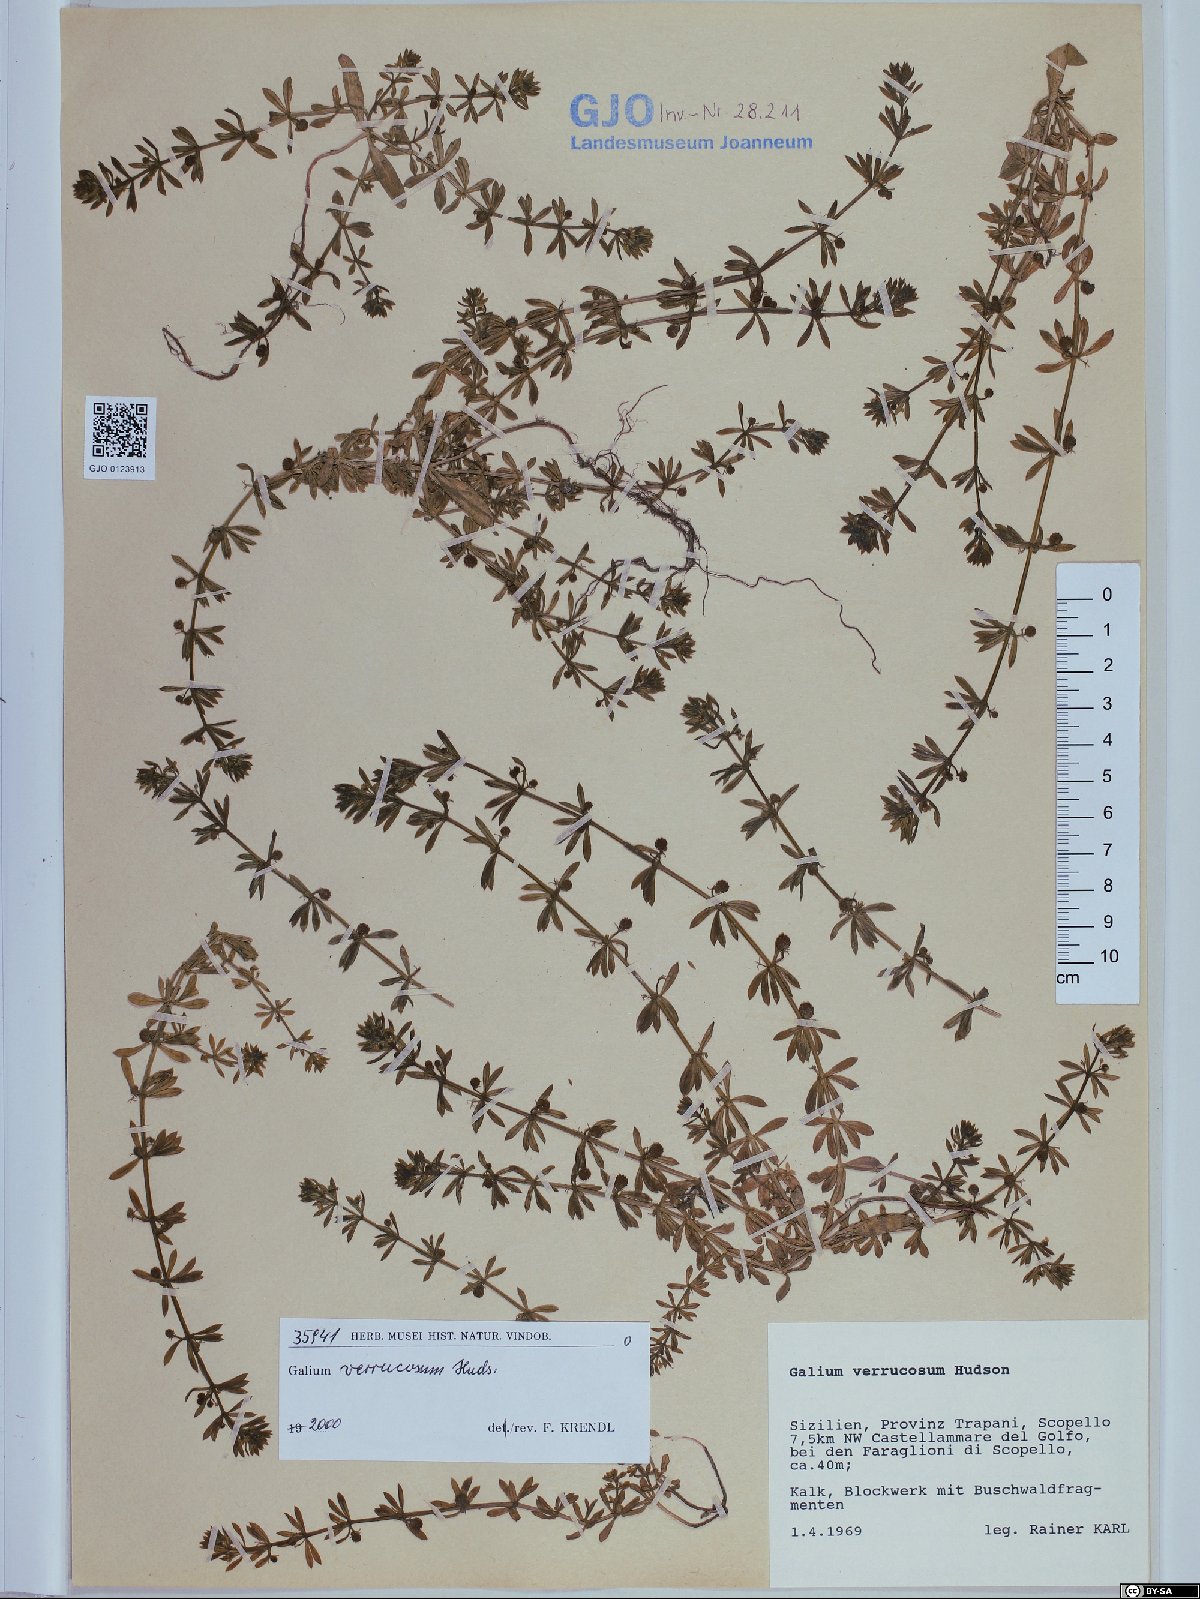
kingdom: Plantae
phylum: Tracheophyta
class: Magnoliopsida
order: Gentianales
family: Rubiaceae
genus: Galium
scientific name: Galium verrucosum
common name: Warty bedstraw
